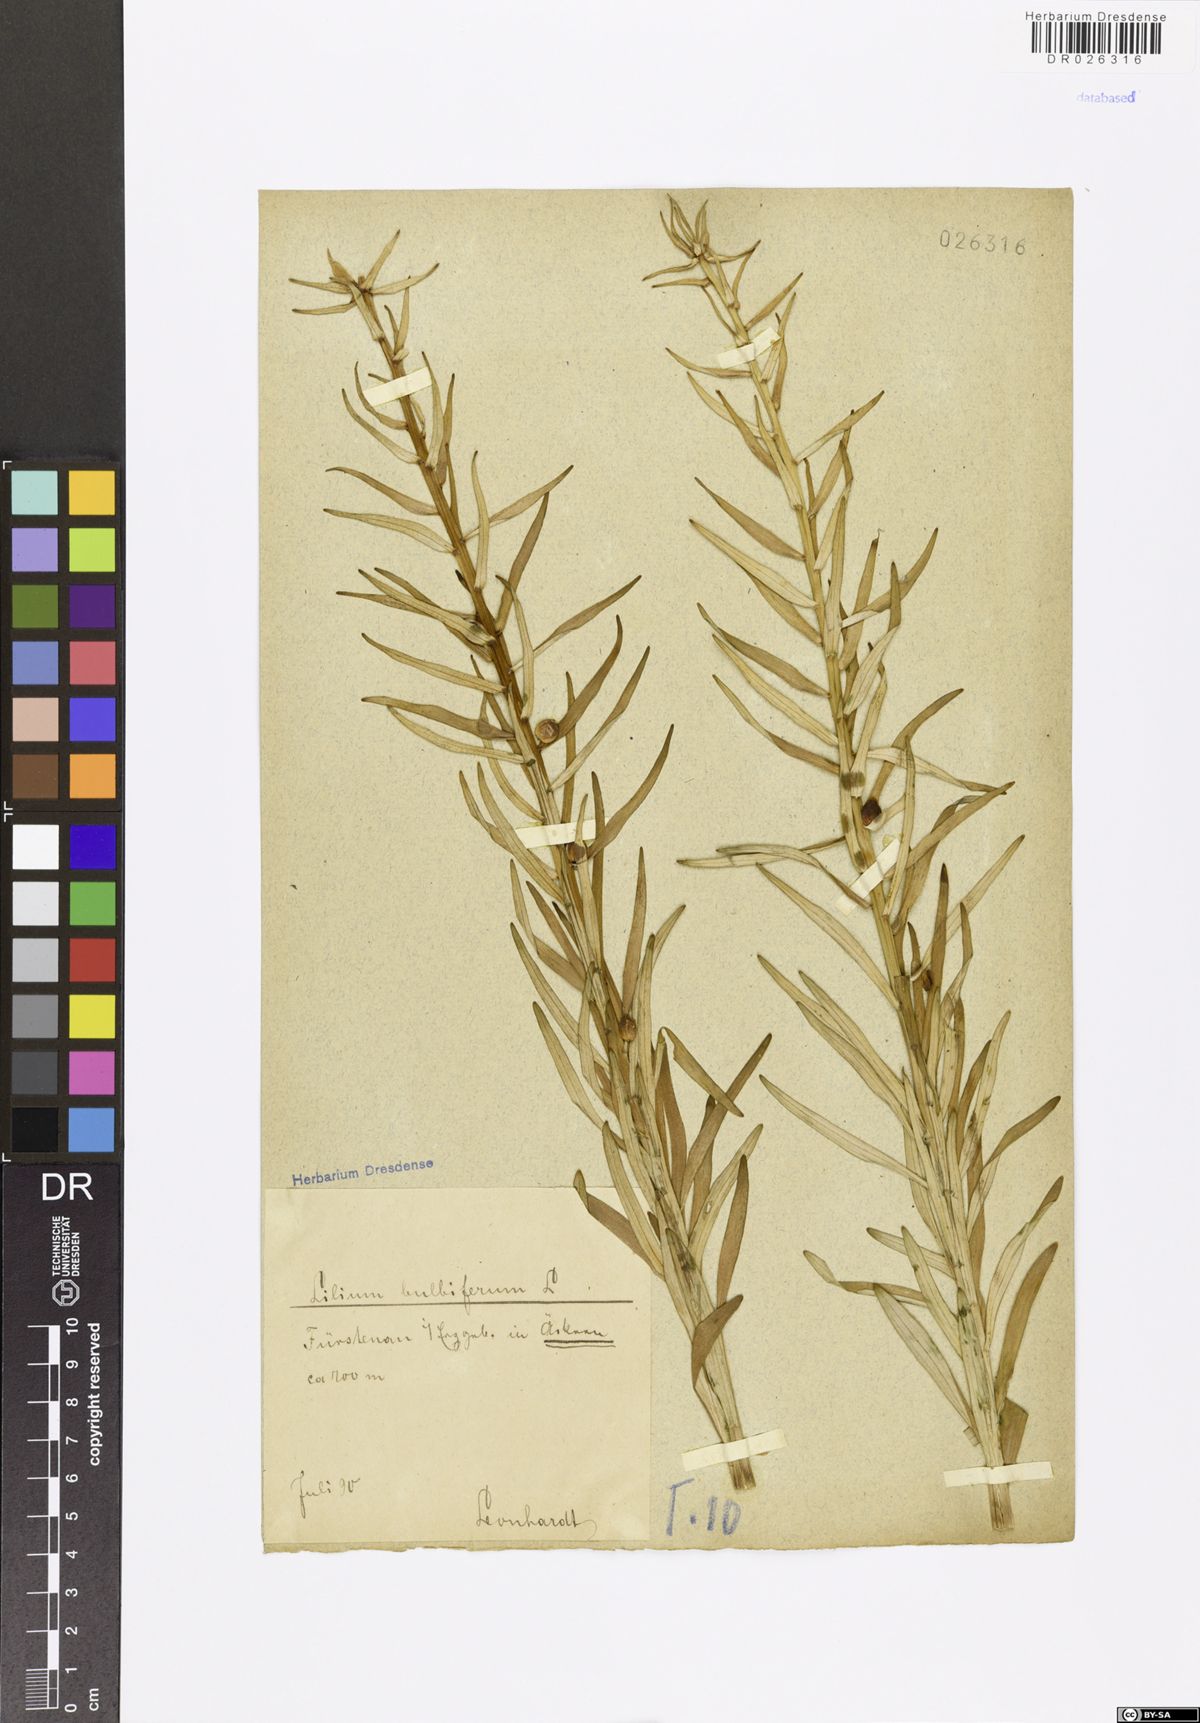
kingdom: Plantae
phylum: Tracheophyta
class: Liliopsida
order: Liliales
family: Liliaceae
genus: Lilium
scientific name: Lilium bulbiferum
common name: Orange lily
